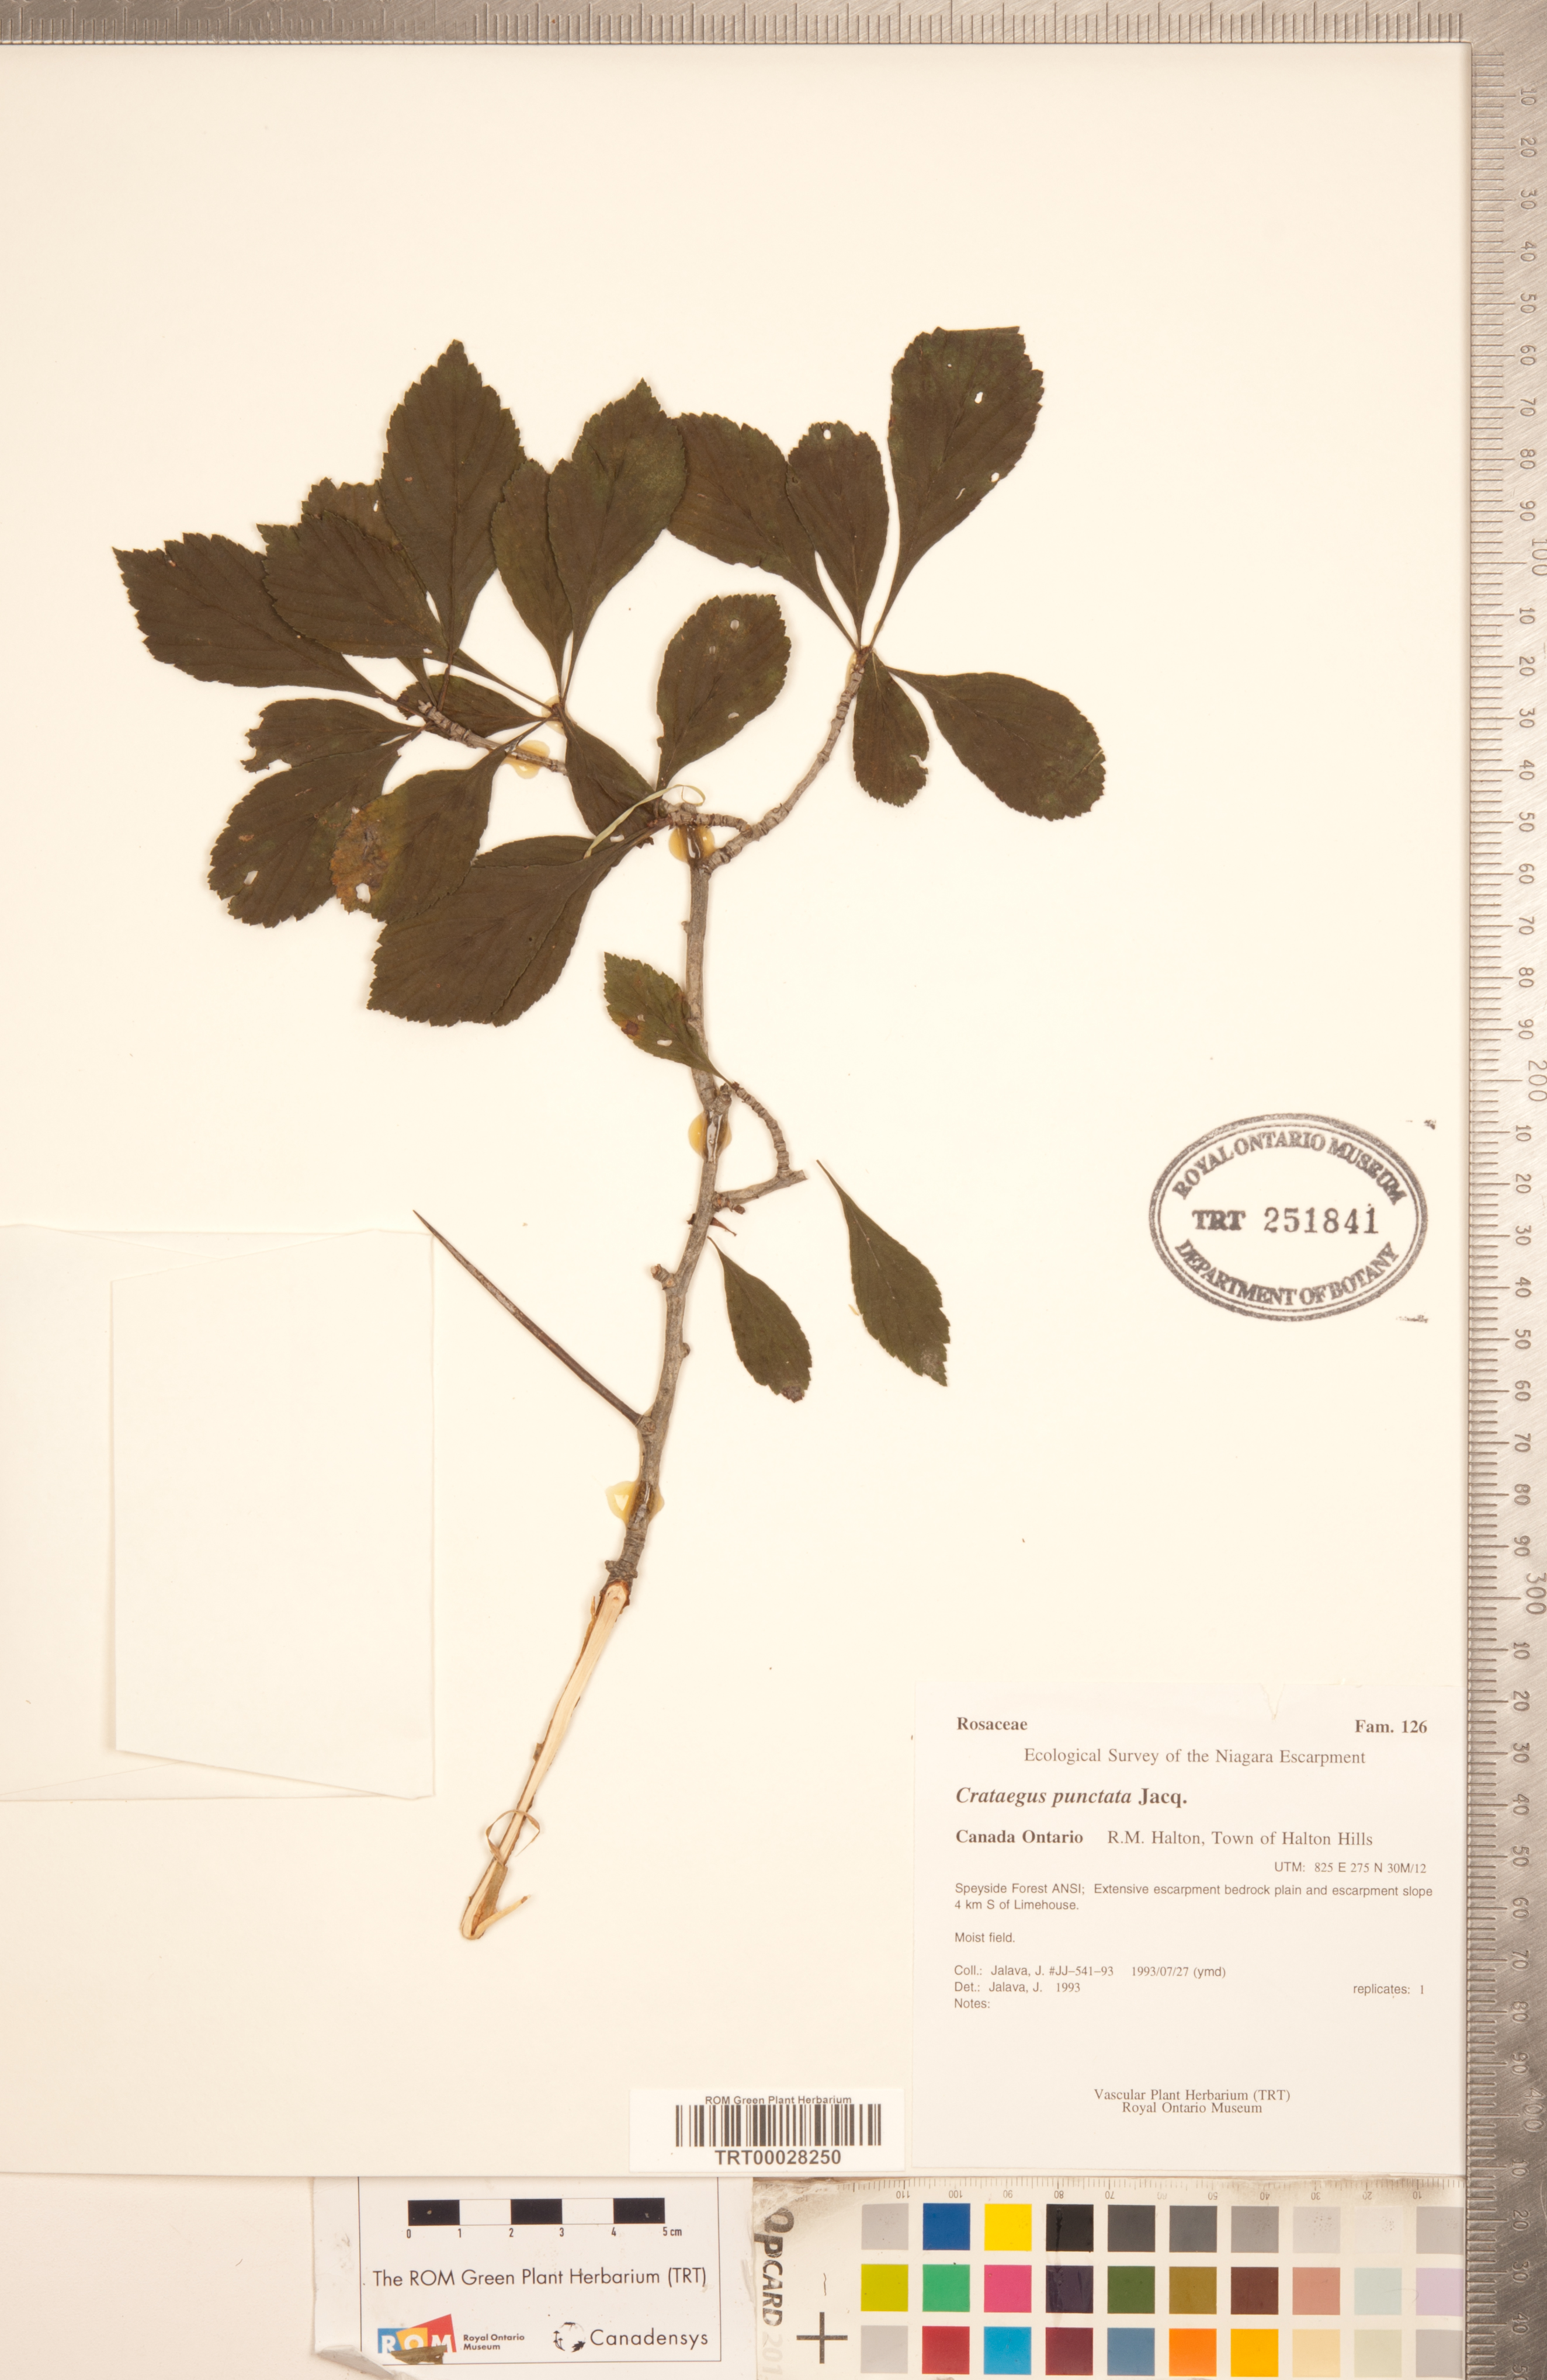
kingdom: Plantae
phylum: Tracheophyta
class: Magnoliopsida
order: Rosales
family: Rosaceae
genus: Crataegus
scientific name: Crataegus punctata
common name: Dotted hawthorn
